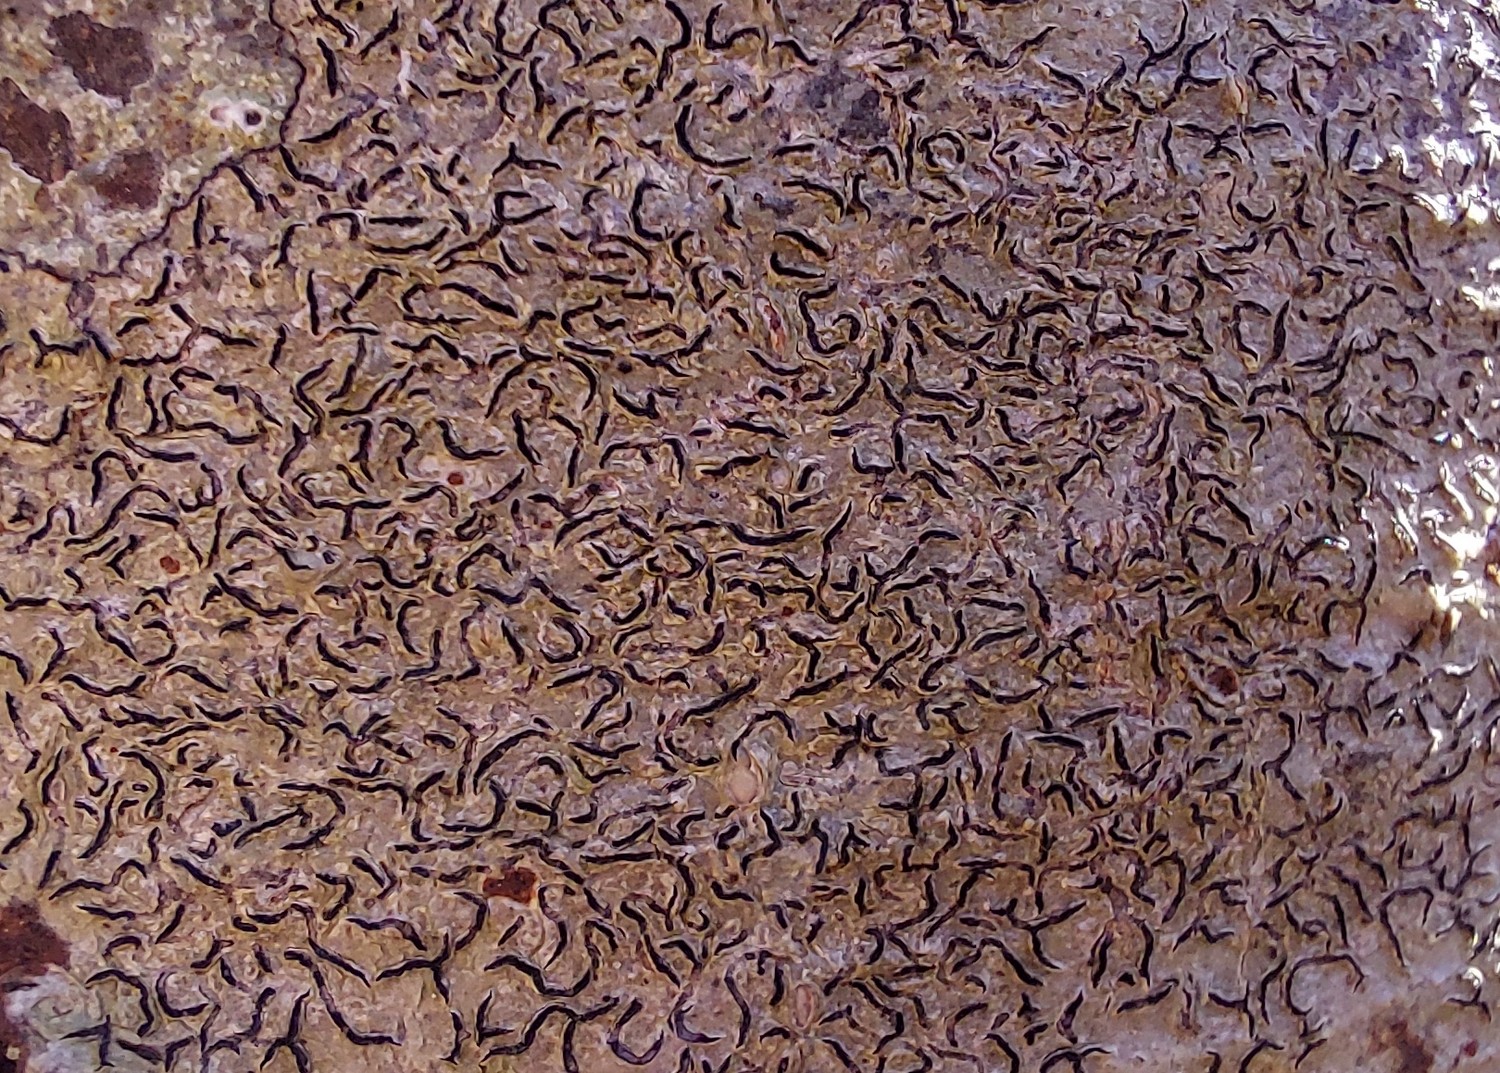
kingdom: Fungi
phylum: Ascomycota
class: Lecanoromycetes
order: Ostropales
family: Graphidaceae
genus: Graphis
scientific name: Graphis scripta
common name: almindelig skriftlav
